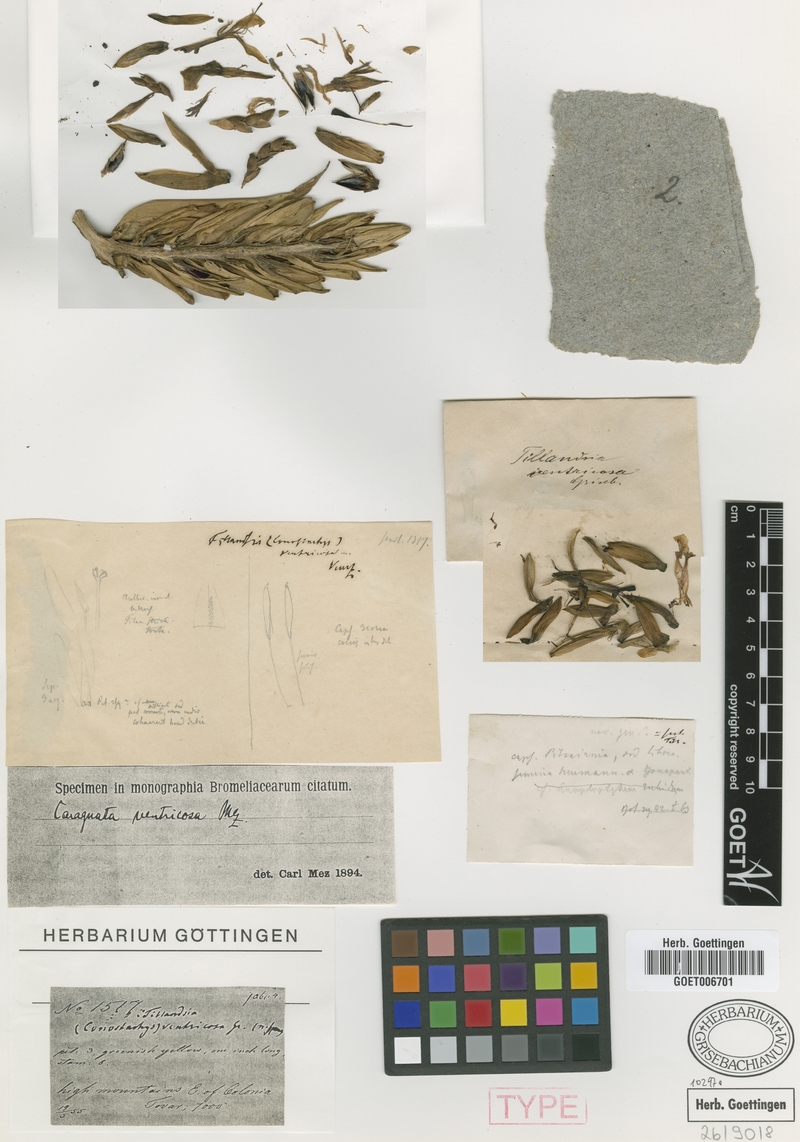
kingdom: Plantae
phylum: Tracheophyta
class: Liliopsida
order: Poales
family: Bromeliaceae
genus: Guzmania
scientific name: Guzmania ventricosa
